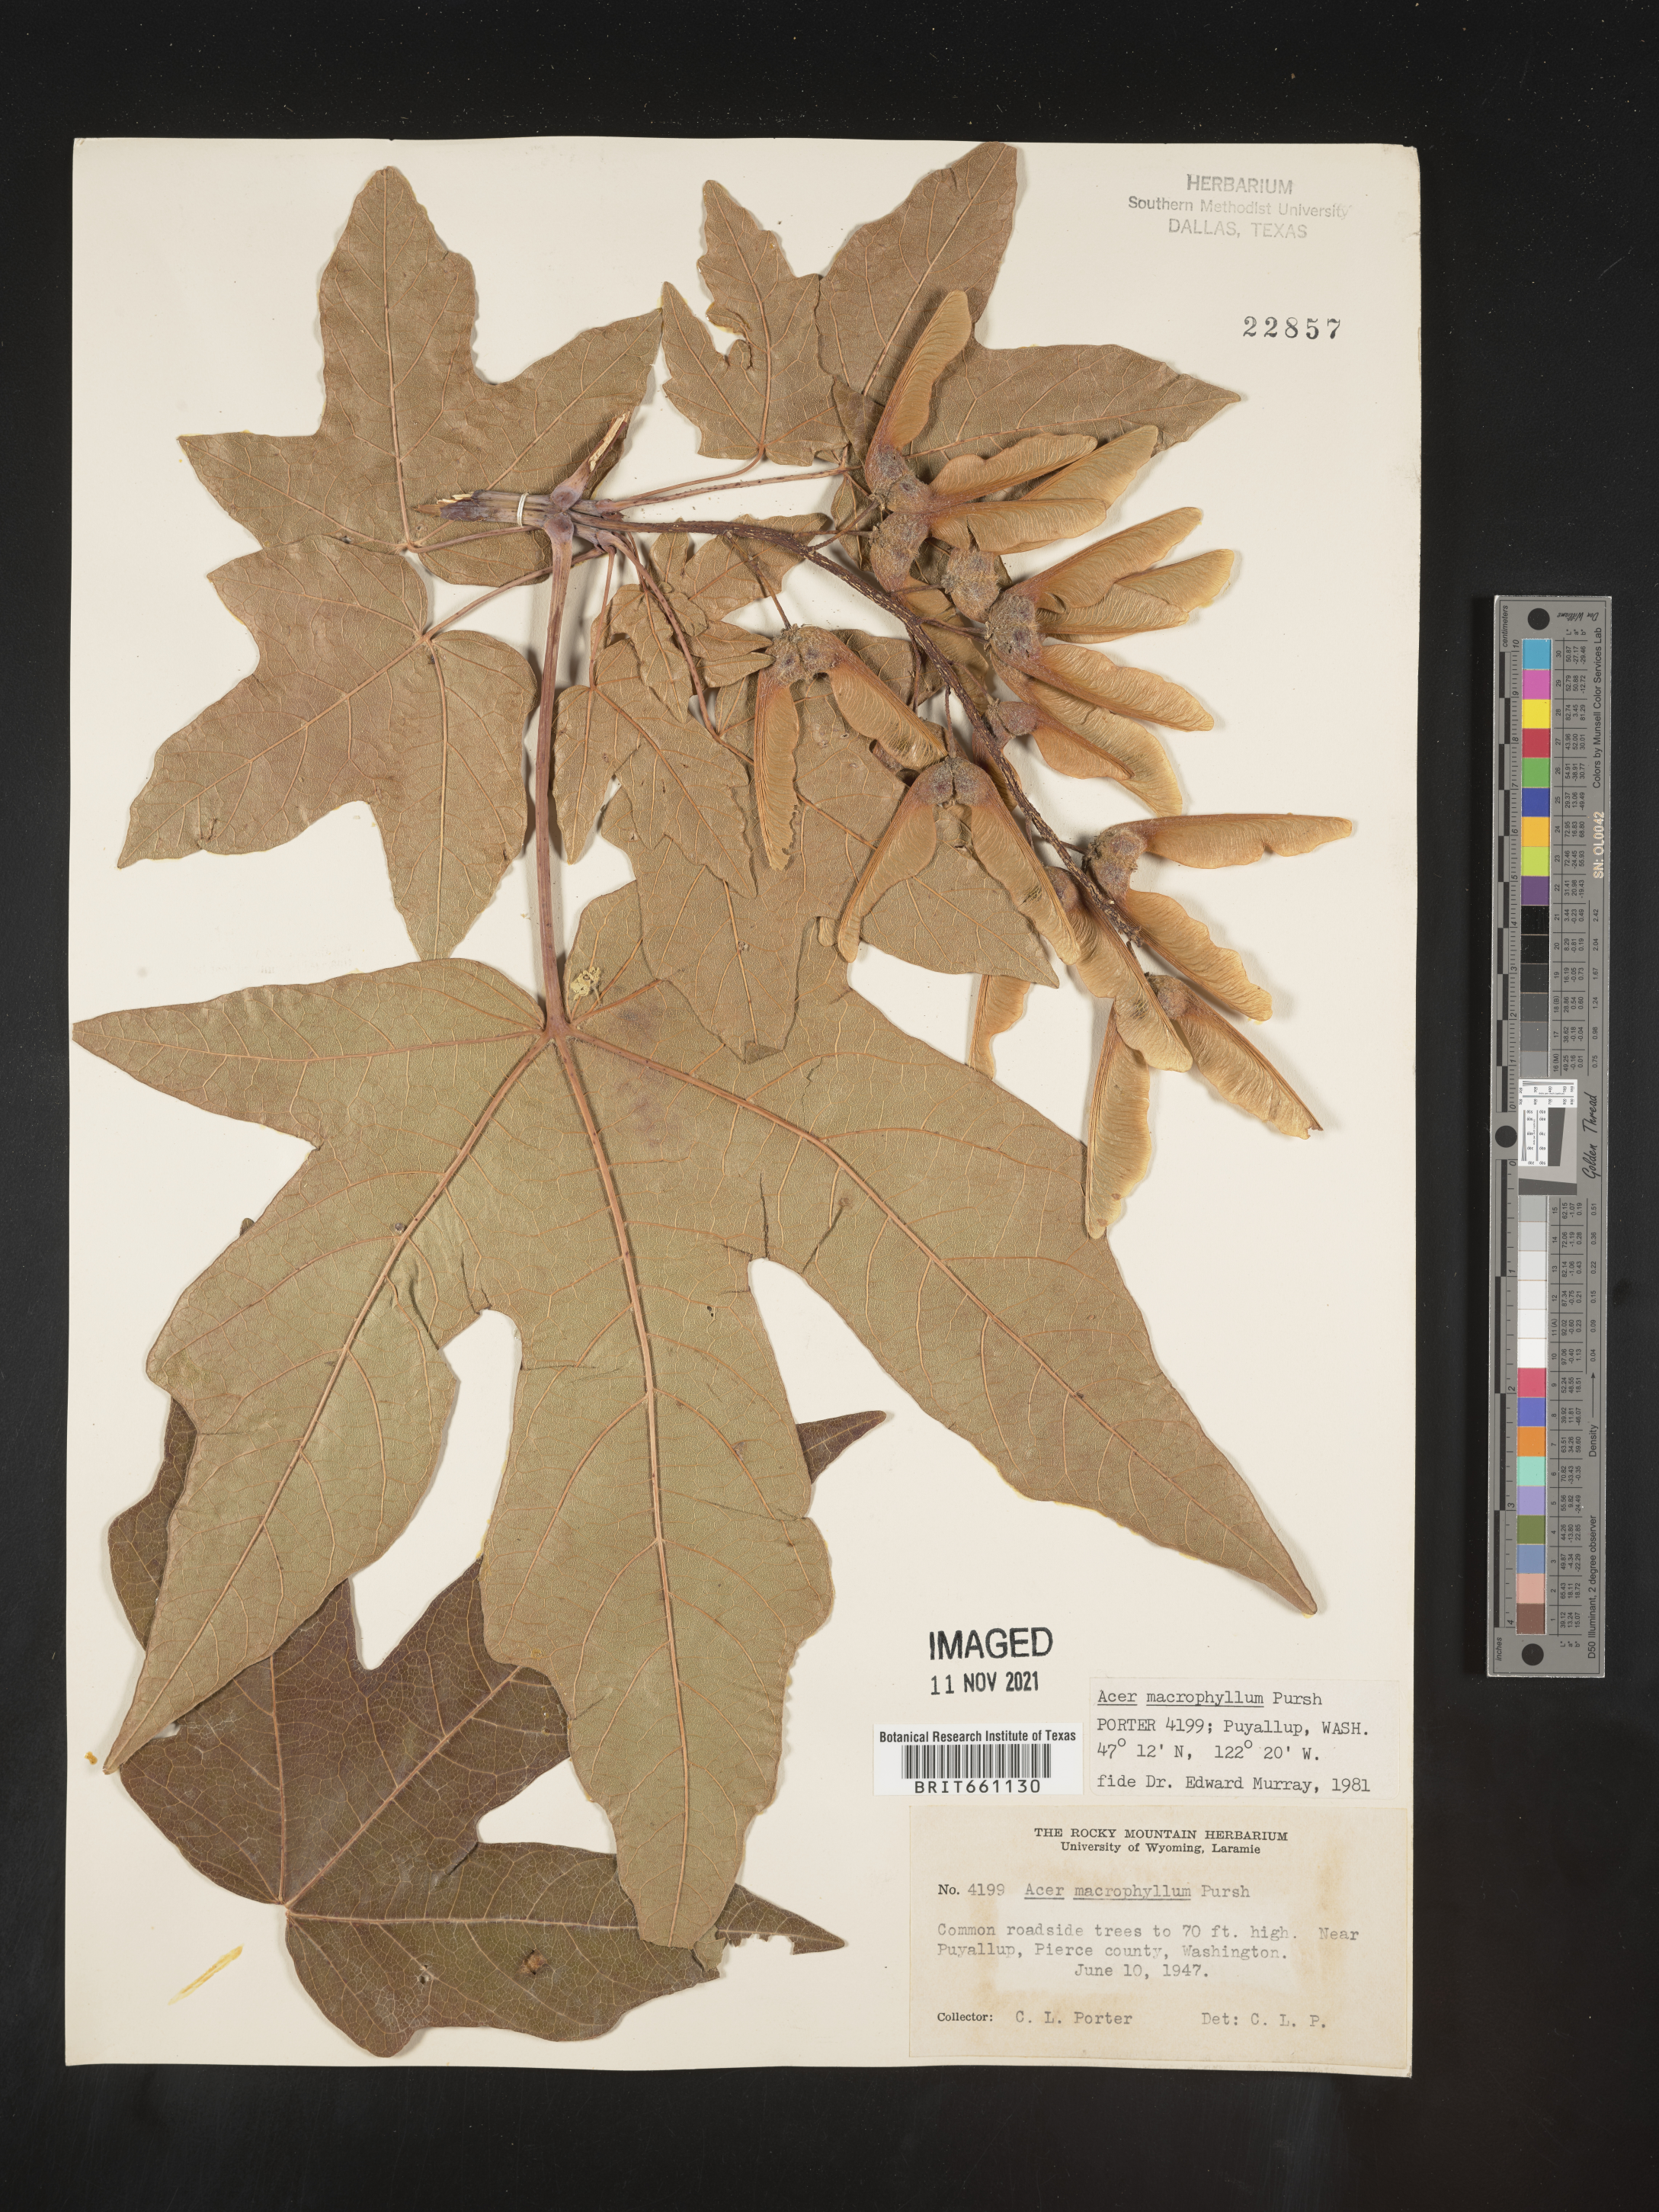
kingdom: Plantae
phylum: Tracheophyta
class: Magnoliopsida
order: Sapindales
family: Sapindaceae
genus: Acer
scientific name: Acer macrophyllum
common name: Oregon maple
